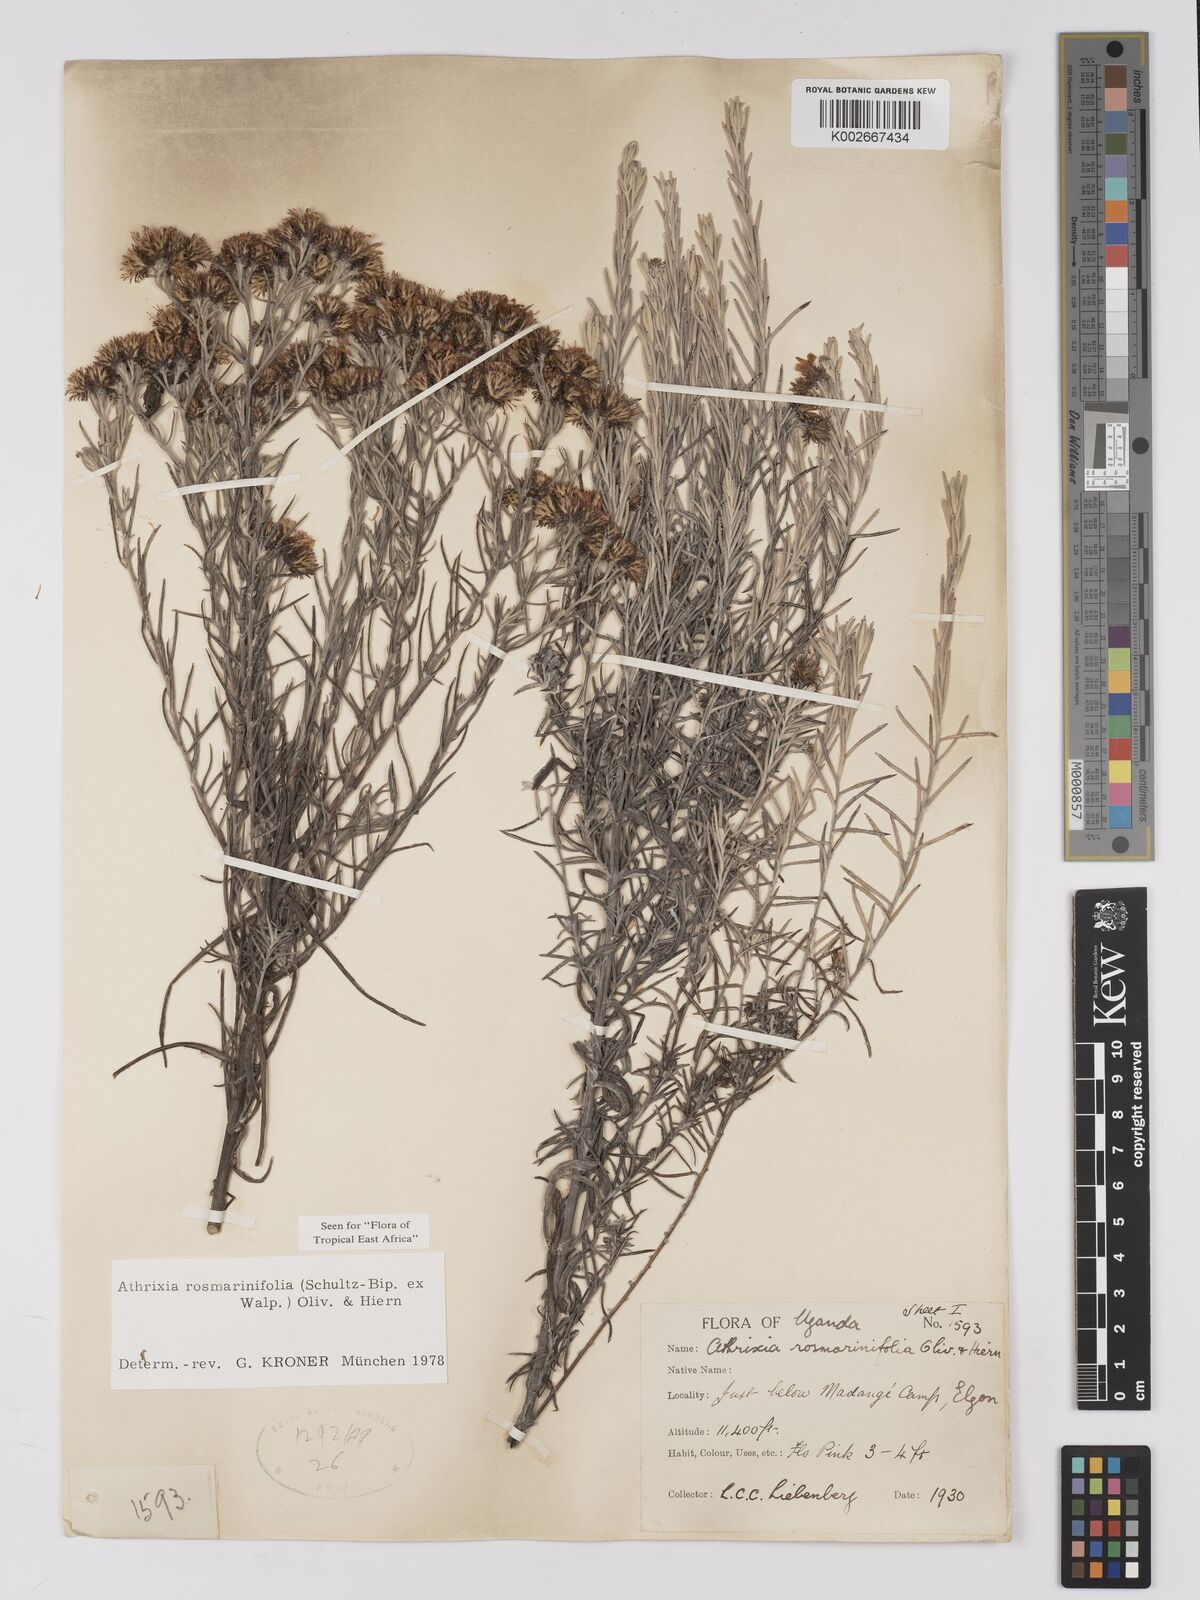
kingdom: Plantae
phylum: Tracheophyta
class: Magnoliopsida
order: Asterales
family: Asteraceae
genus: Athrixia
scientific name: Athrixia rosmarinifolia
